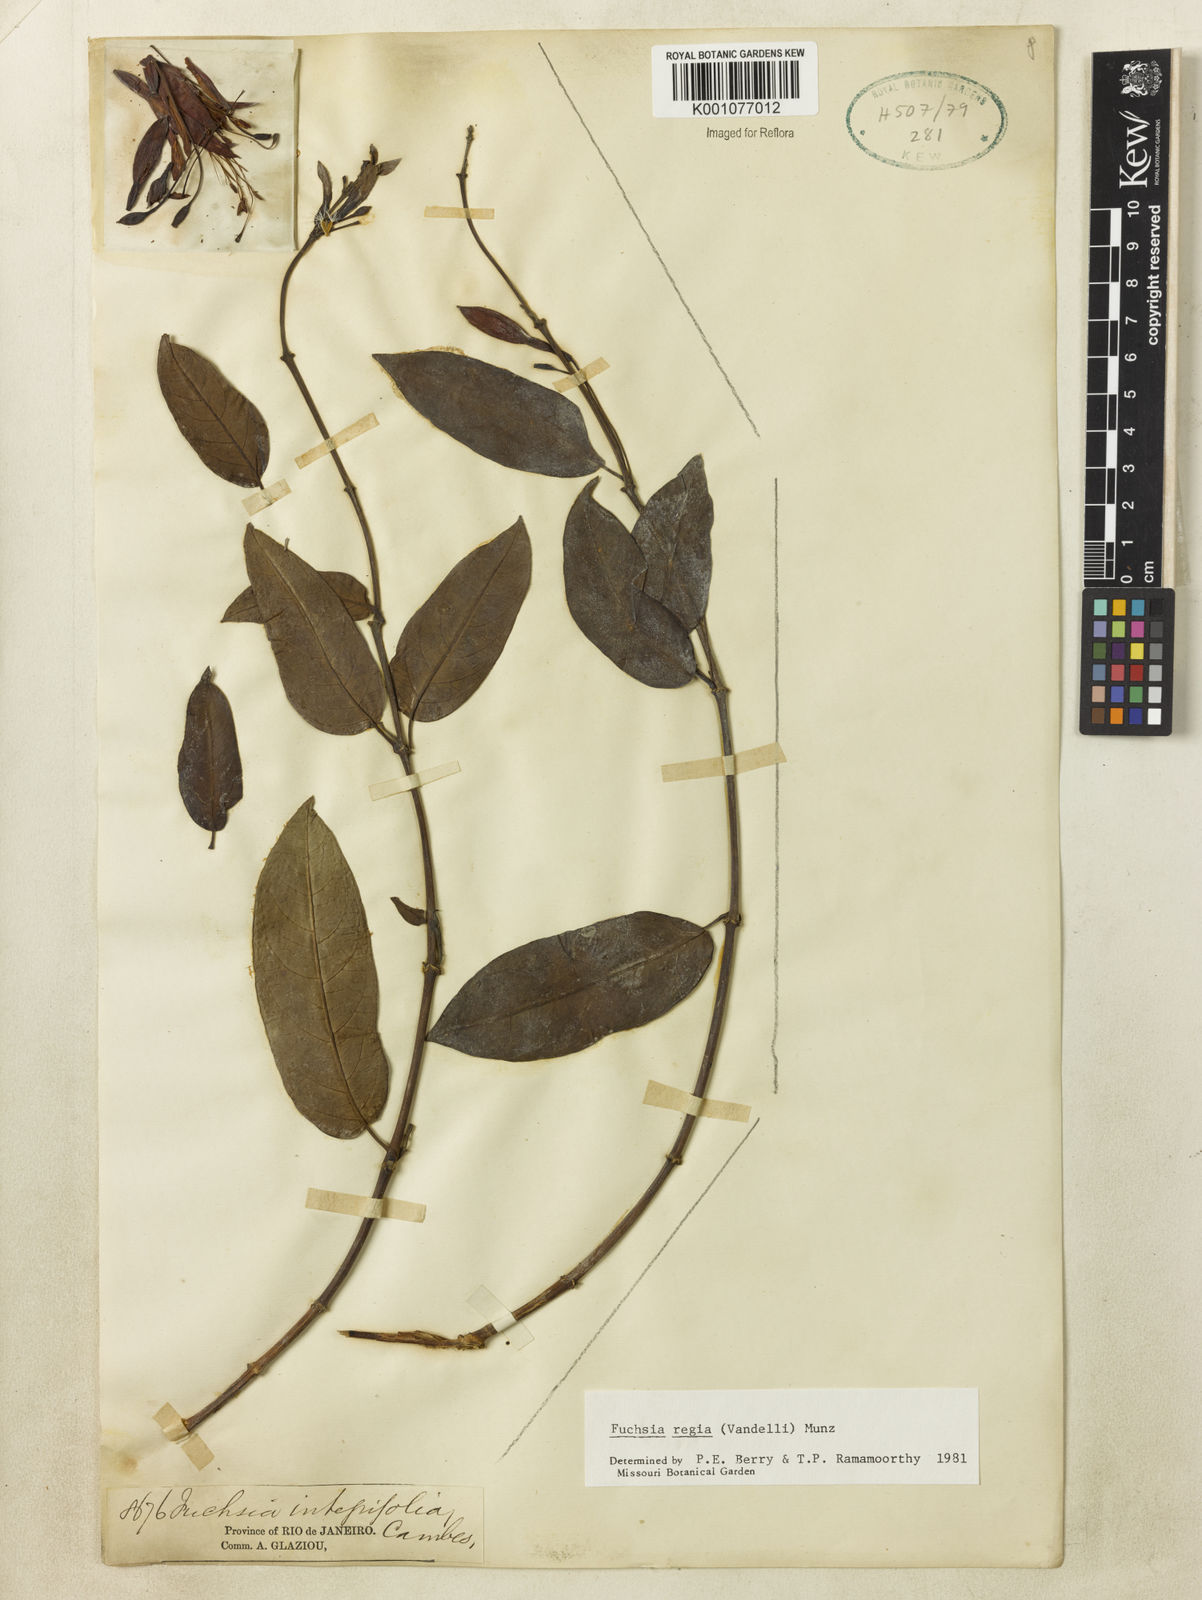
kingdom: Plantae
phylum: Tracheophyta
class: Magnoliopsida
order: Myrtales
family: Onagraceae
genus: Fuchsia
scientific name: Fuchsia regia
